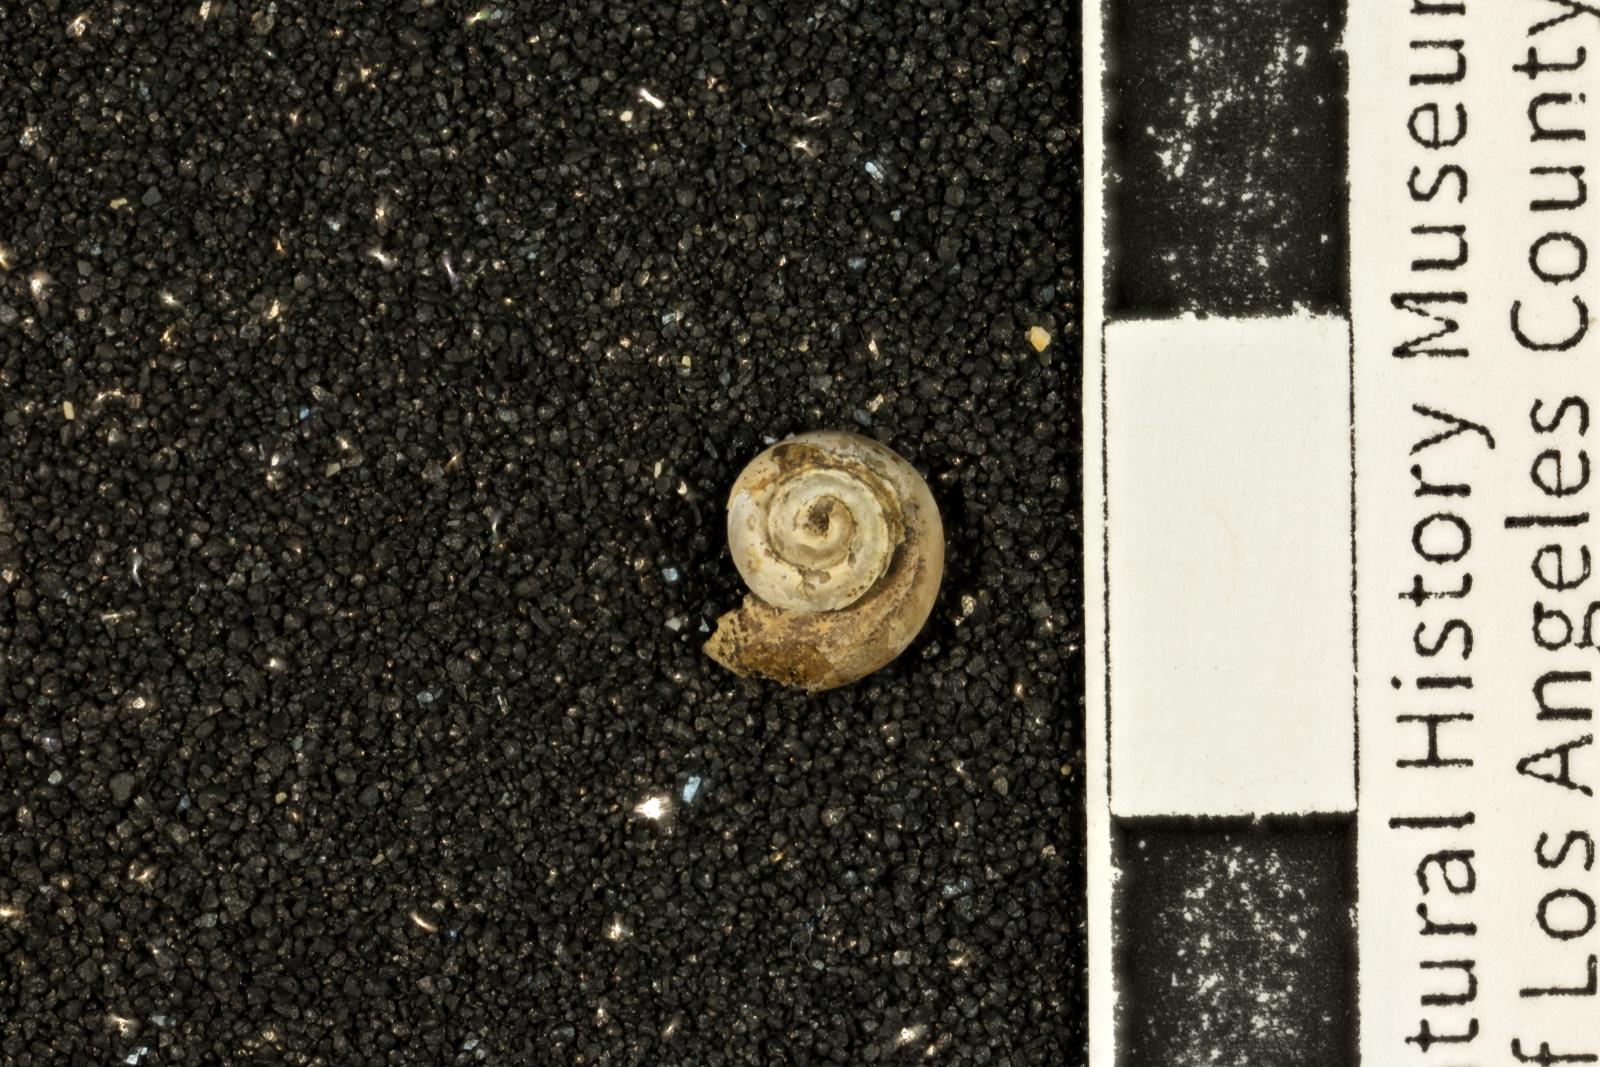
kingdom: Animalia
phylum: Mollusca
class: Gastropoda
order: Trochida
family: Turbinidae
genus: Igonoia
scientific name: Igonoia vacca
